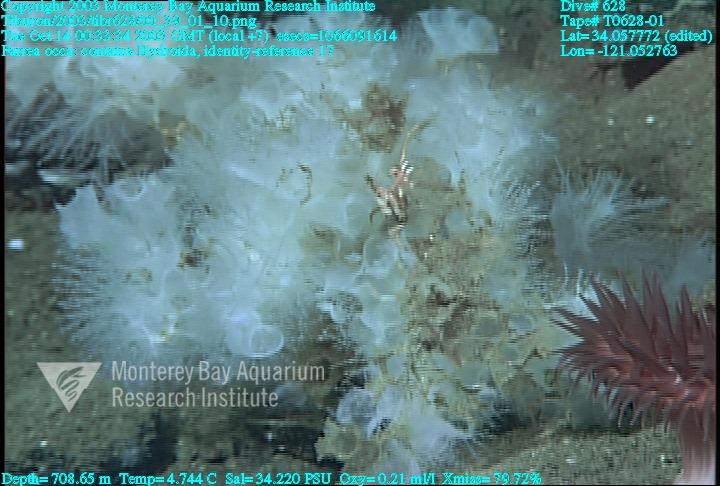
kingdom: Animalia
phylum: Porifera
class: Hexactinellida
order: Sceptrulophora
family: Farreidae
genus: Farrea
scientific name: Farrea occa
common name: Reversed glass sponge
